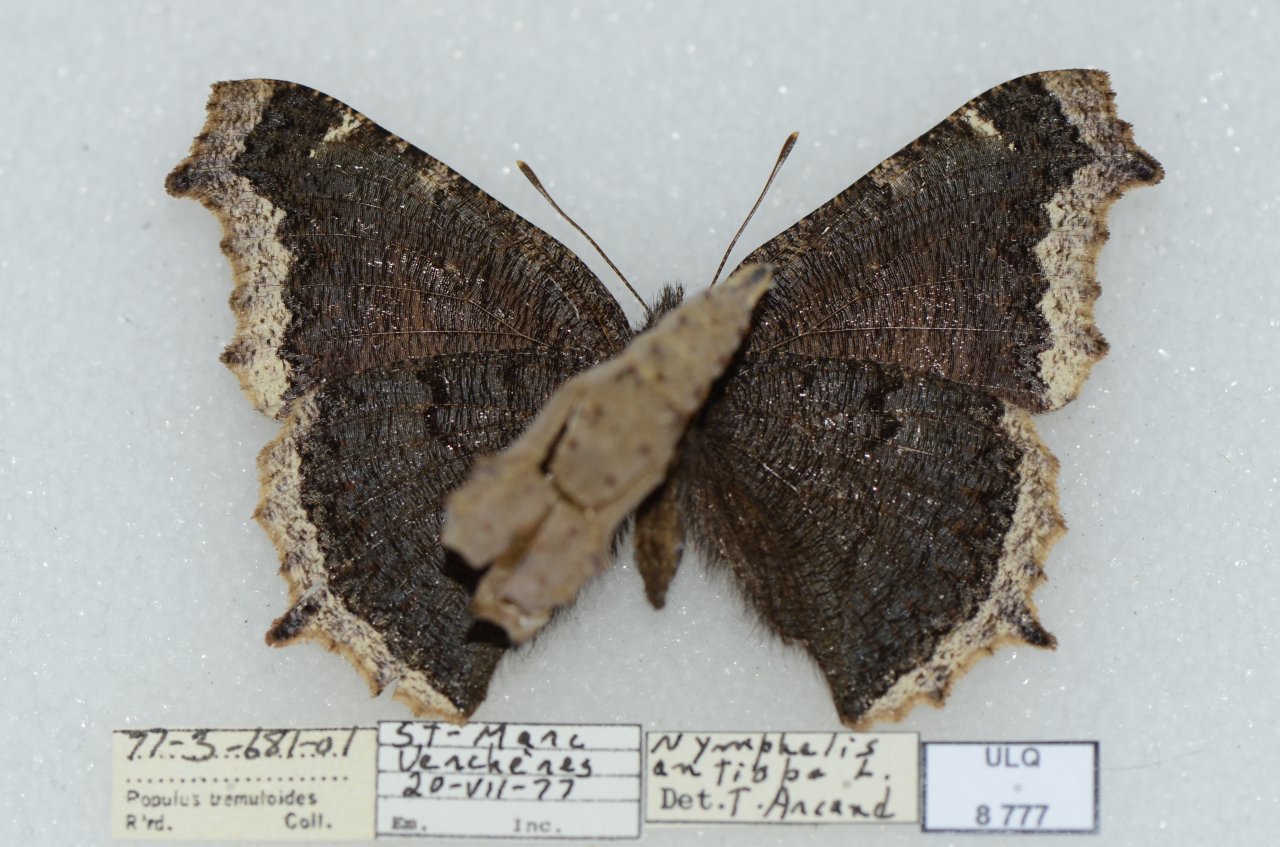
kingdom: Animalia
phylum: Arthropoda
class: Insecta
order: Lepidoptera
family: Nymphalidae
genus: Nymphalis
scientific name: Nymphalis antiopa
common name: Mourning Cloak
